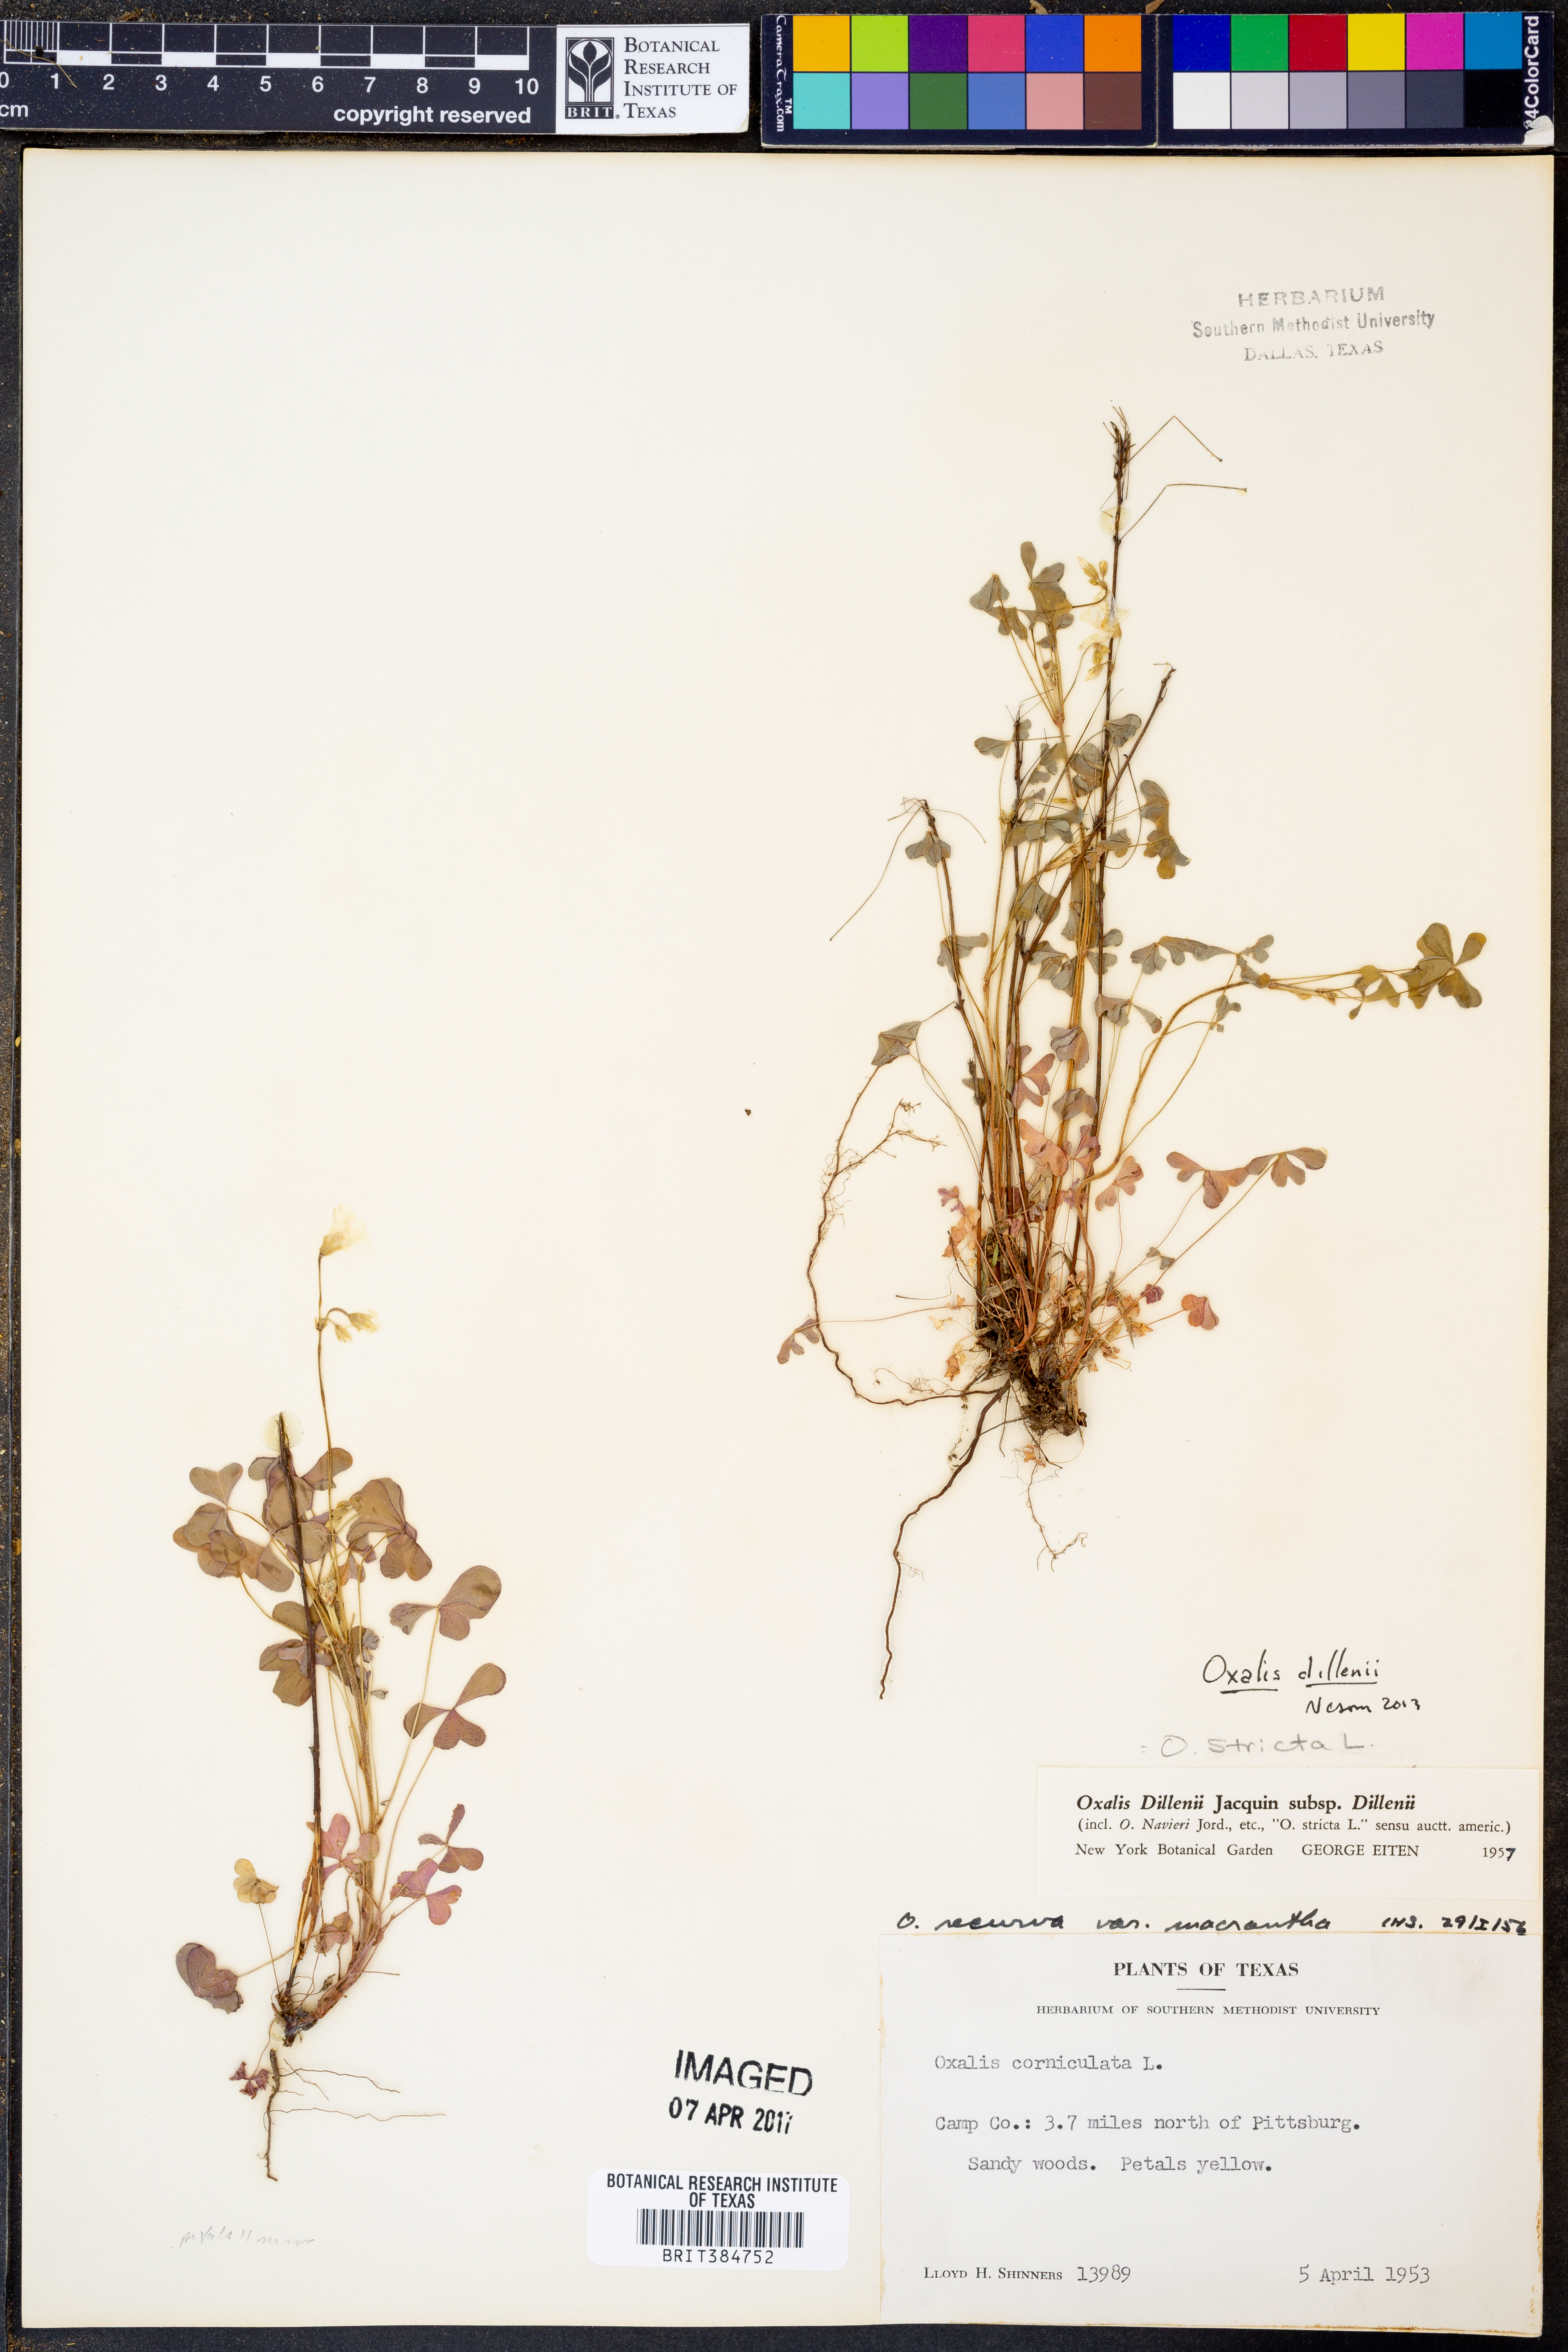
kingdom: Plantae
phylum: Tracheophyta
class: Magnoliopsida
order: Oxalidales
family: Oxalidaceae
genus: Oxalis
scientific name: Oxalis dillenii
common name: Sussex yellow-sorrel
